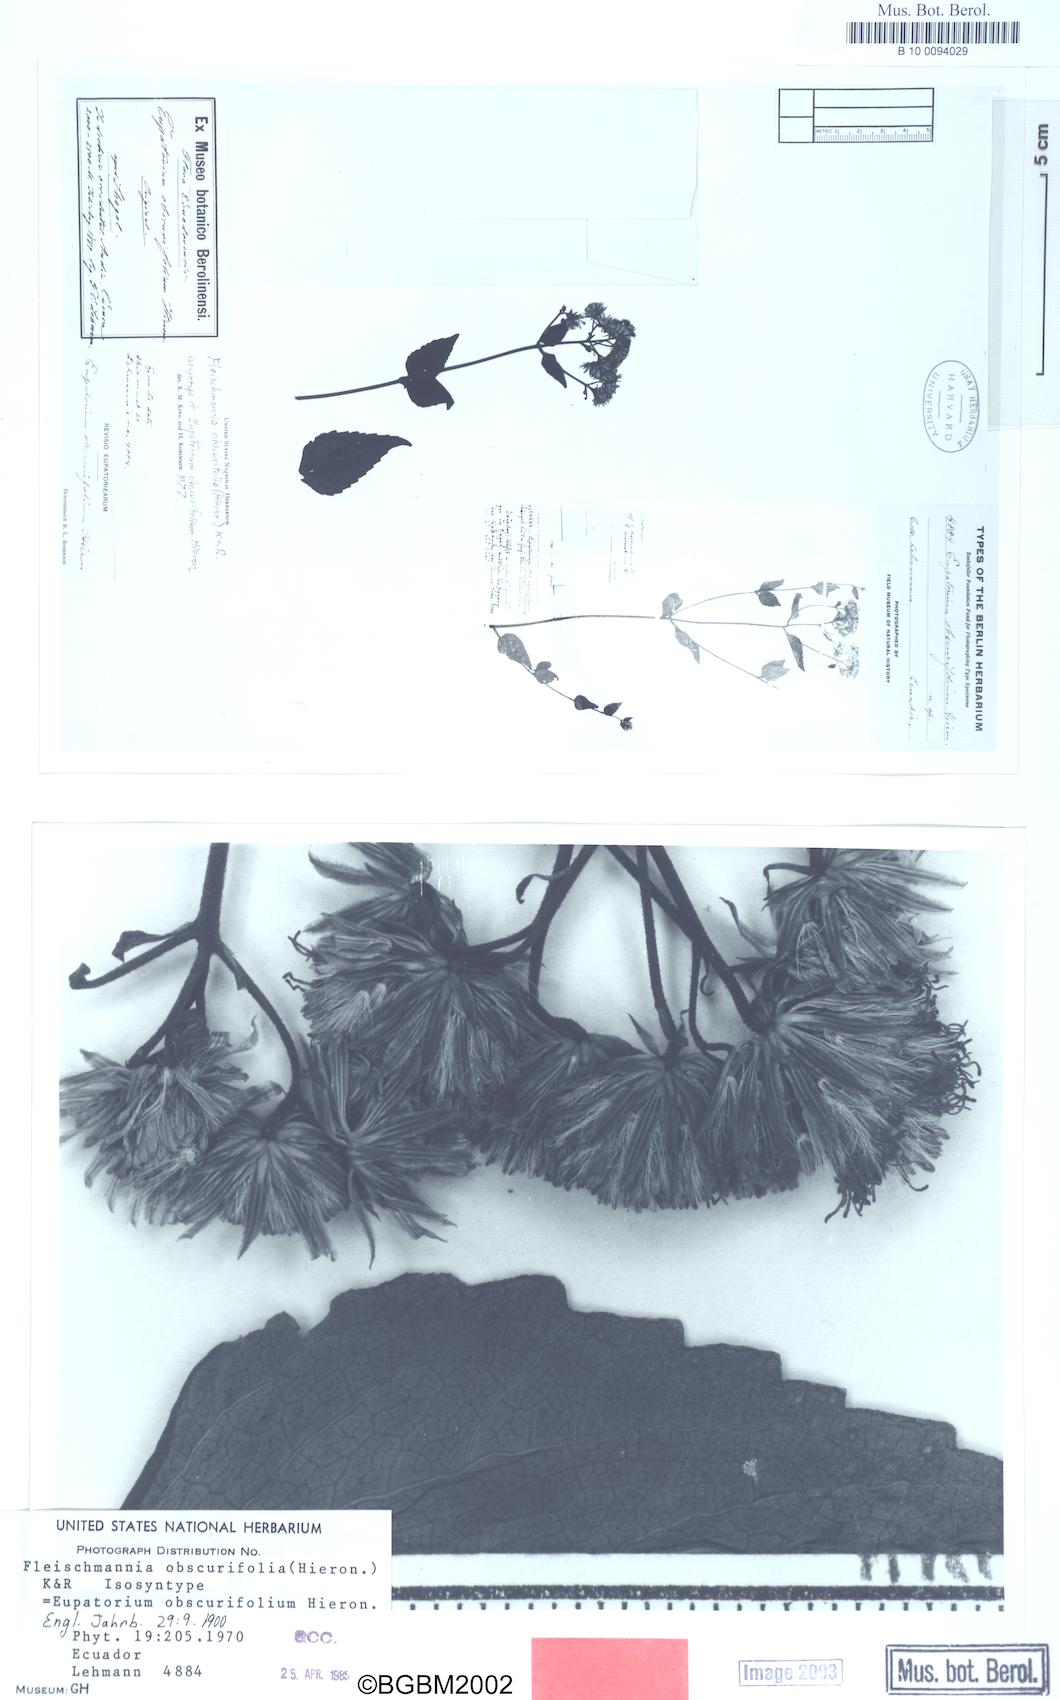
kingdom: Plantae
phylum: Tracheophyta
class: Magnoliopsida
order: Asterales
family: Asteraceae
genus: Fleischmannia
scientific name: Fleischmannia obscurifolia
